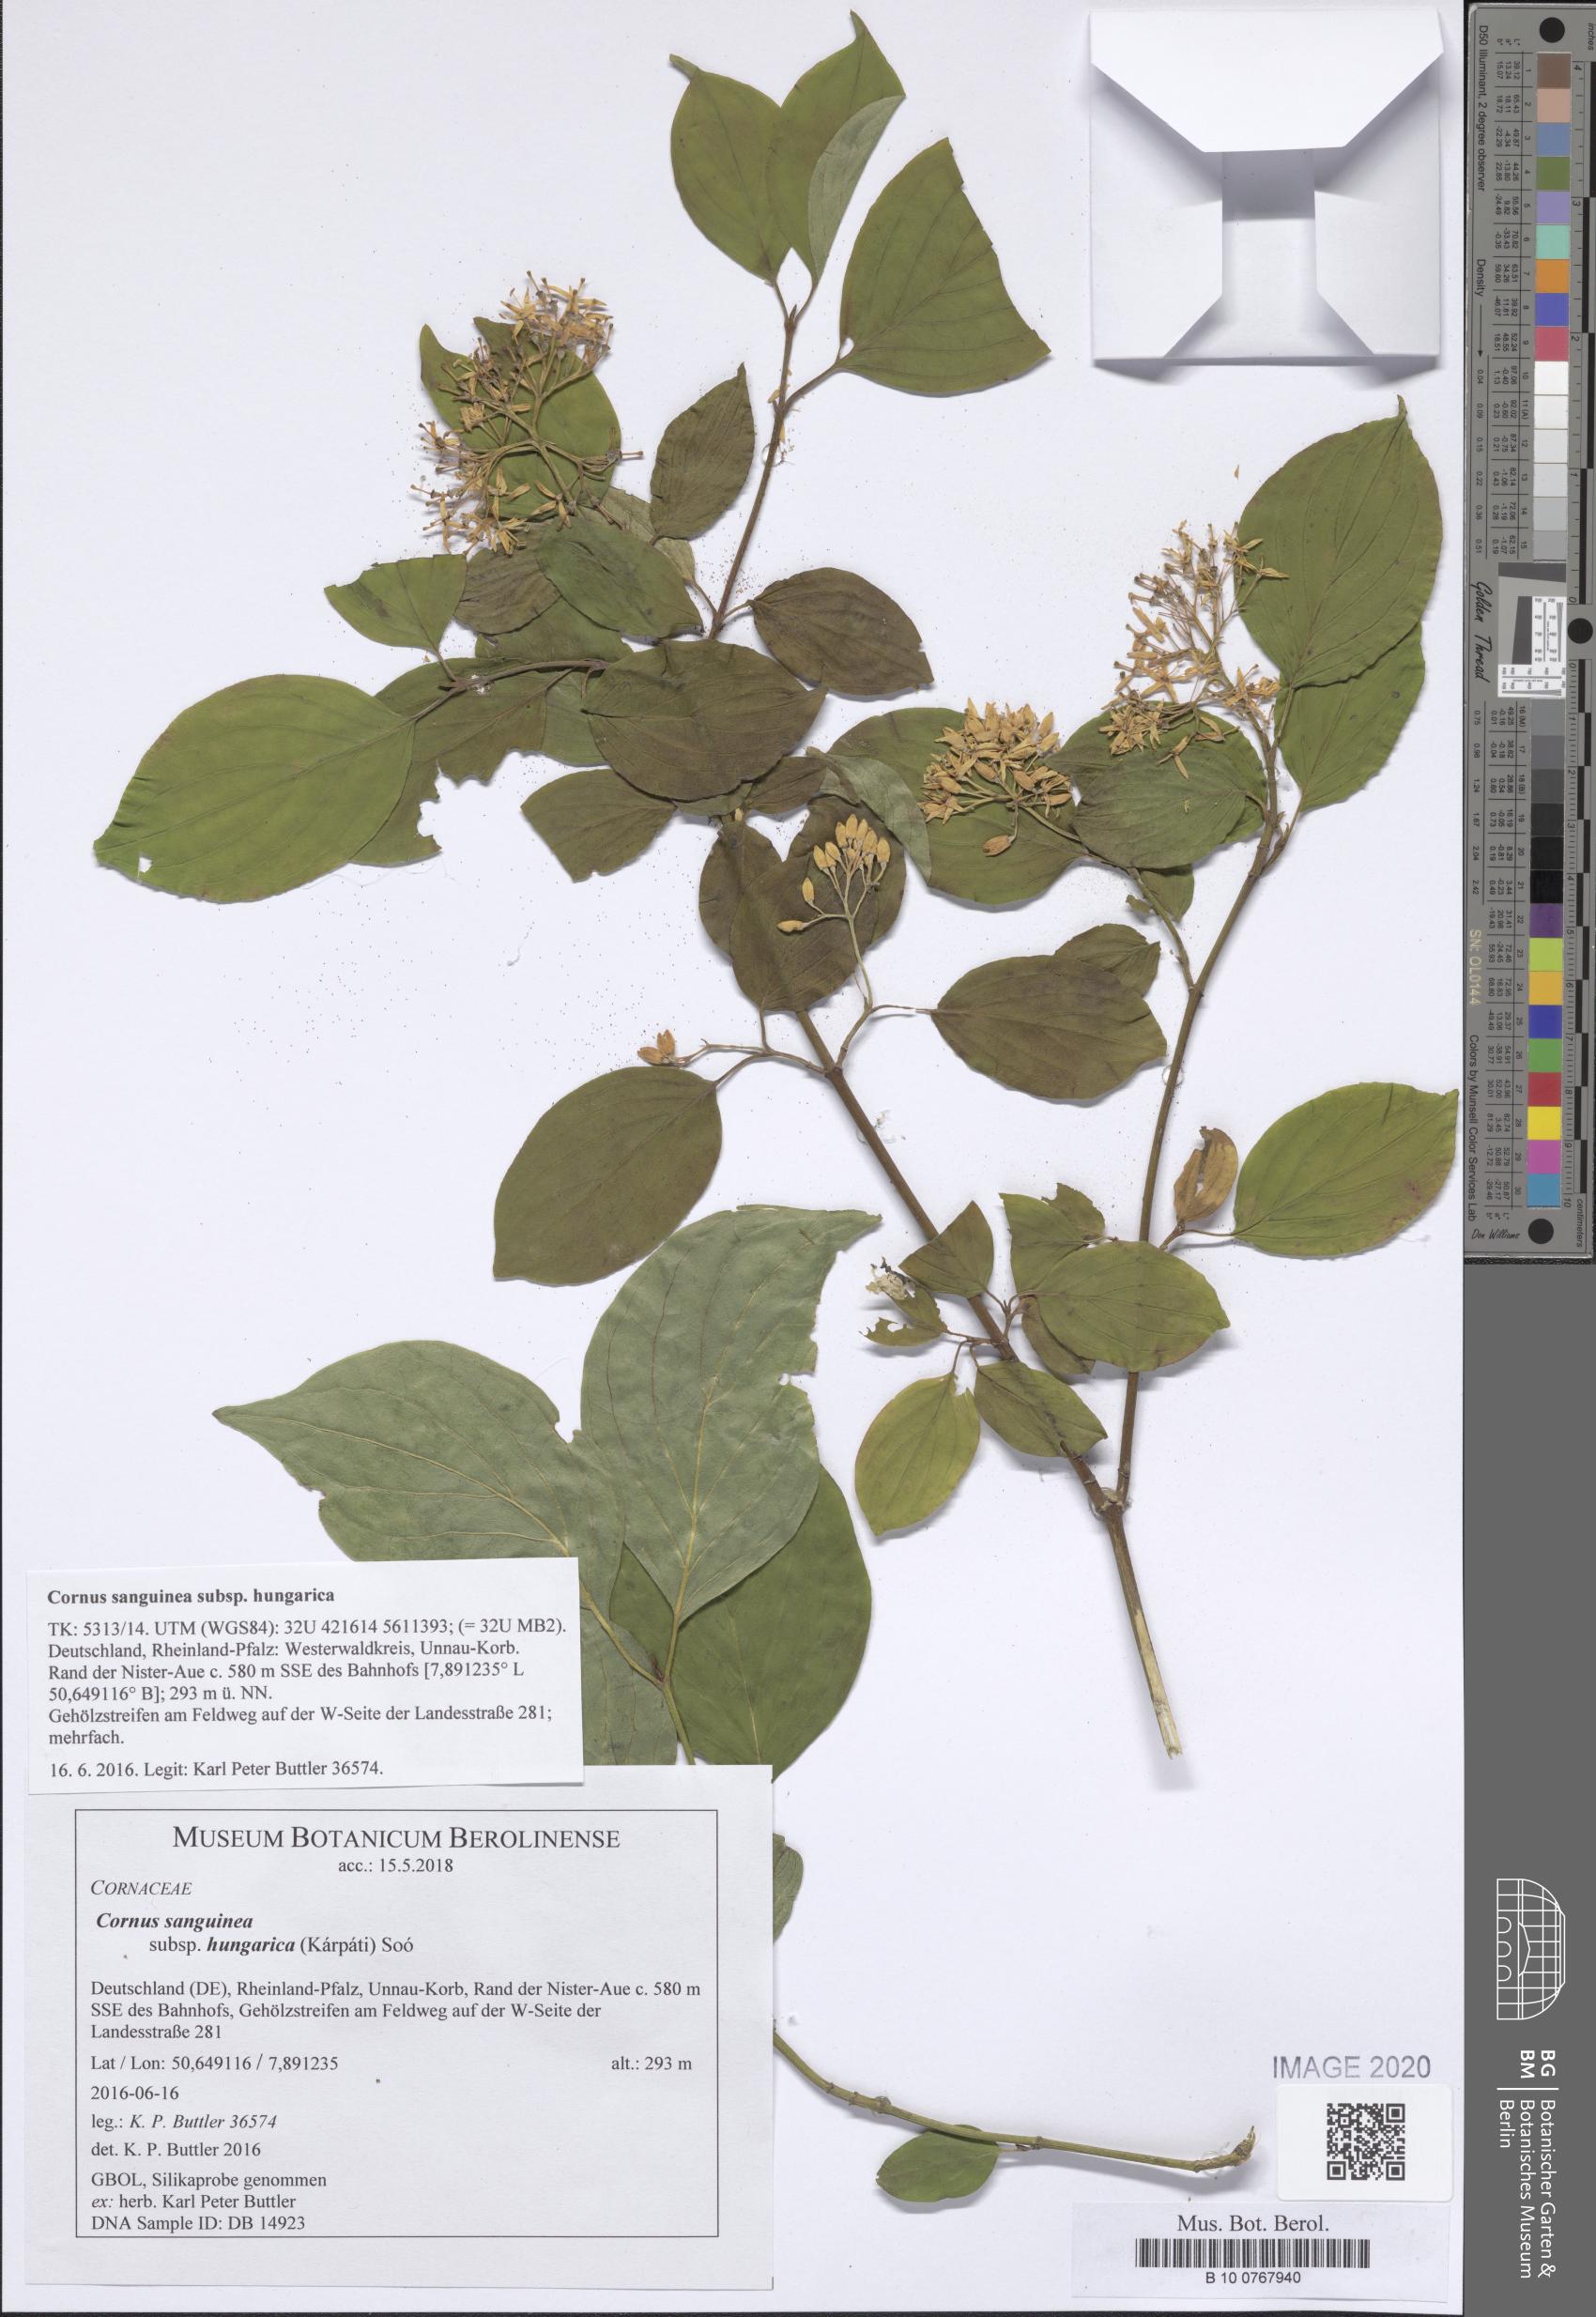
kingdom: Plantae
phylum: Tracheophyta
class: Magnoliopsida
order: Cornales
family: Cornaceae
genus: Cornus
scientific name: Cornus sanguinea
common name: Dogwood
